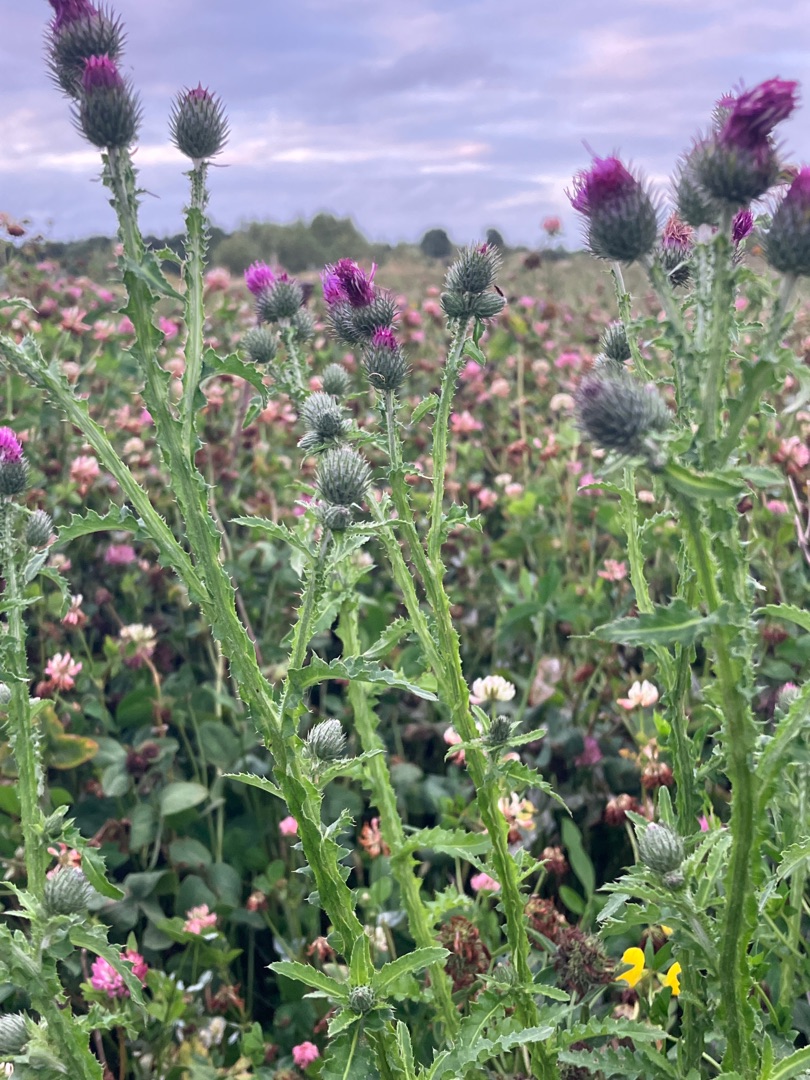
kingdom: Plantae
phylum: Tracheophyta
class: Magnoliopsida
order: Asterales
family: Asteraceae
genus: Carduus
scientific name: Carduus crispus
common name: Kruset tidsel
